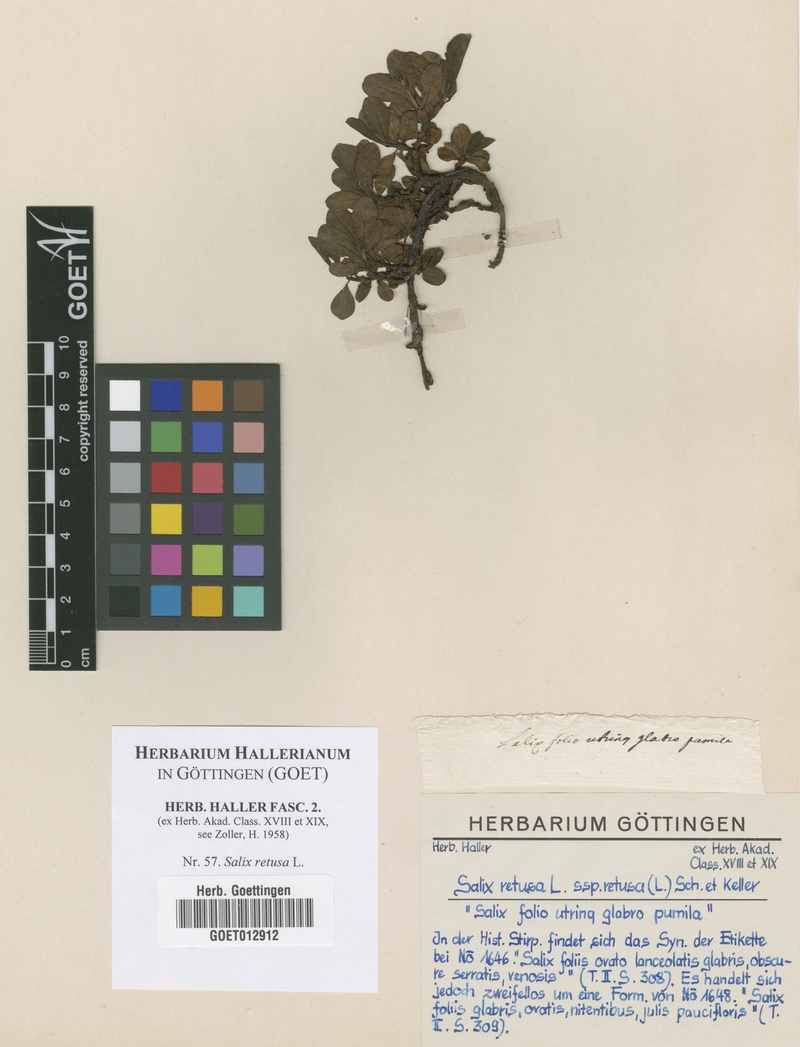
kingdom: Plantae
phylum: Tracheophyta
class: Magnoliopsida
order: Malpighiales
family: Salicaceae
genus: Salix
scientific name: Salix retusa
